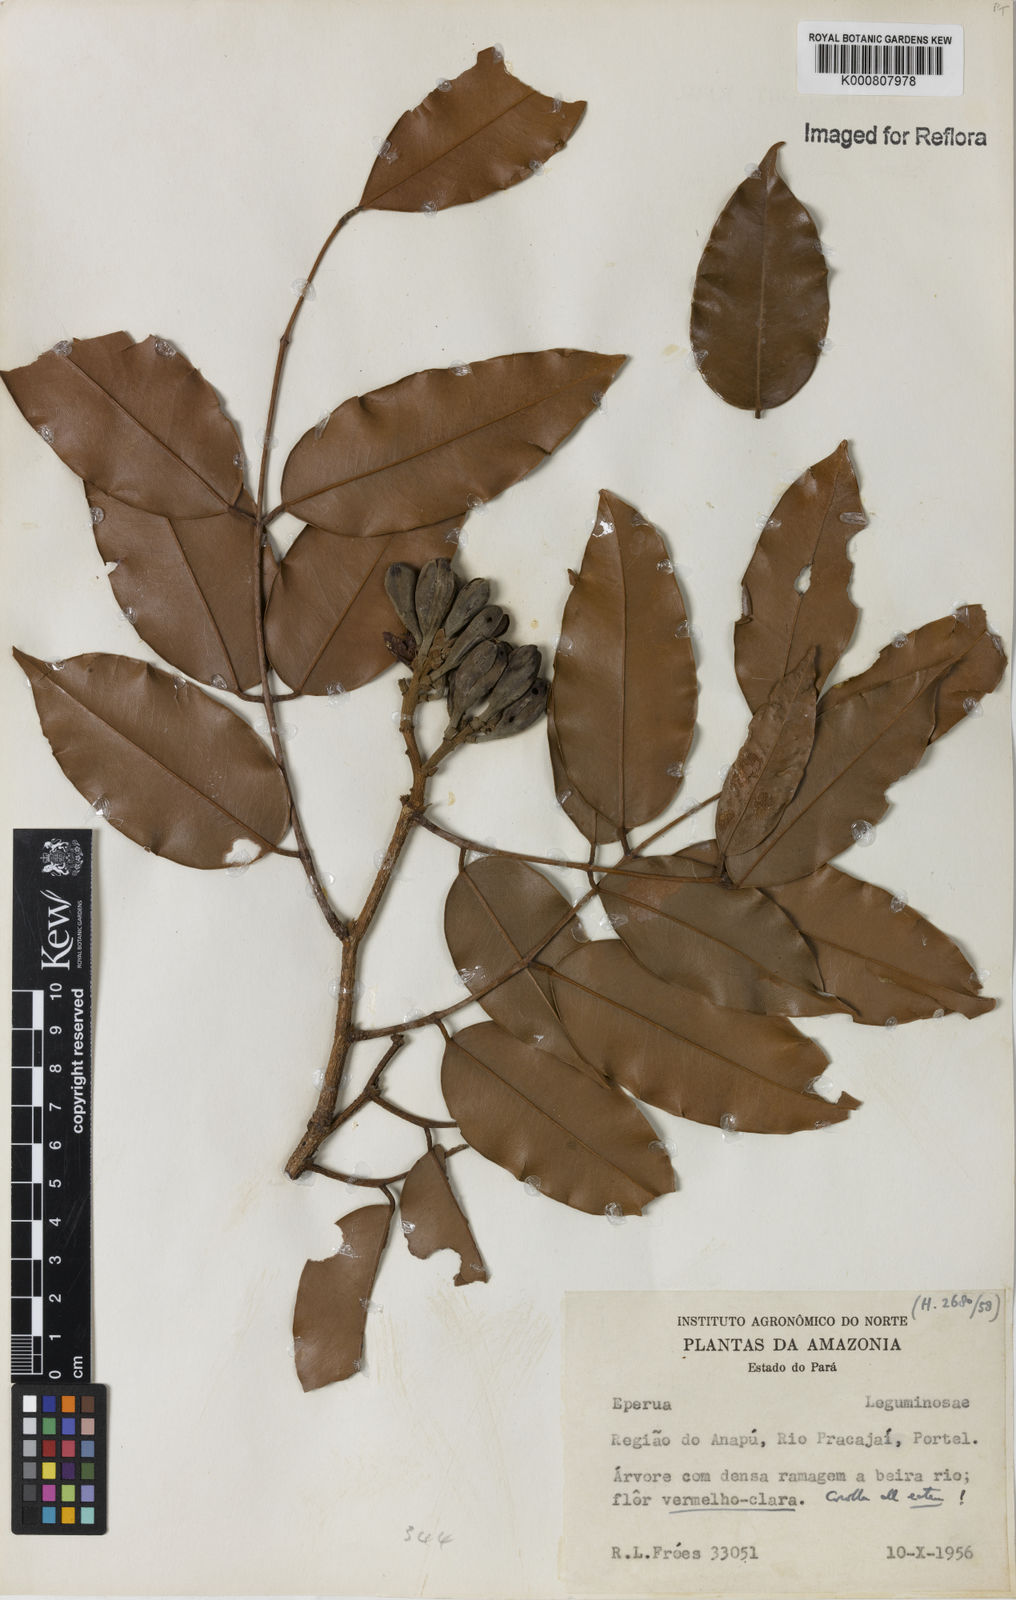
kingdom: Plantae
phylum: Tracheophyta
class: Magnoliopsida
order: Fabales
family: Fabaceae
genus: Eperua
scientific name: Eperua rubiginosa
